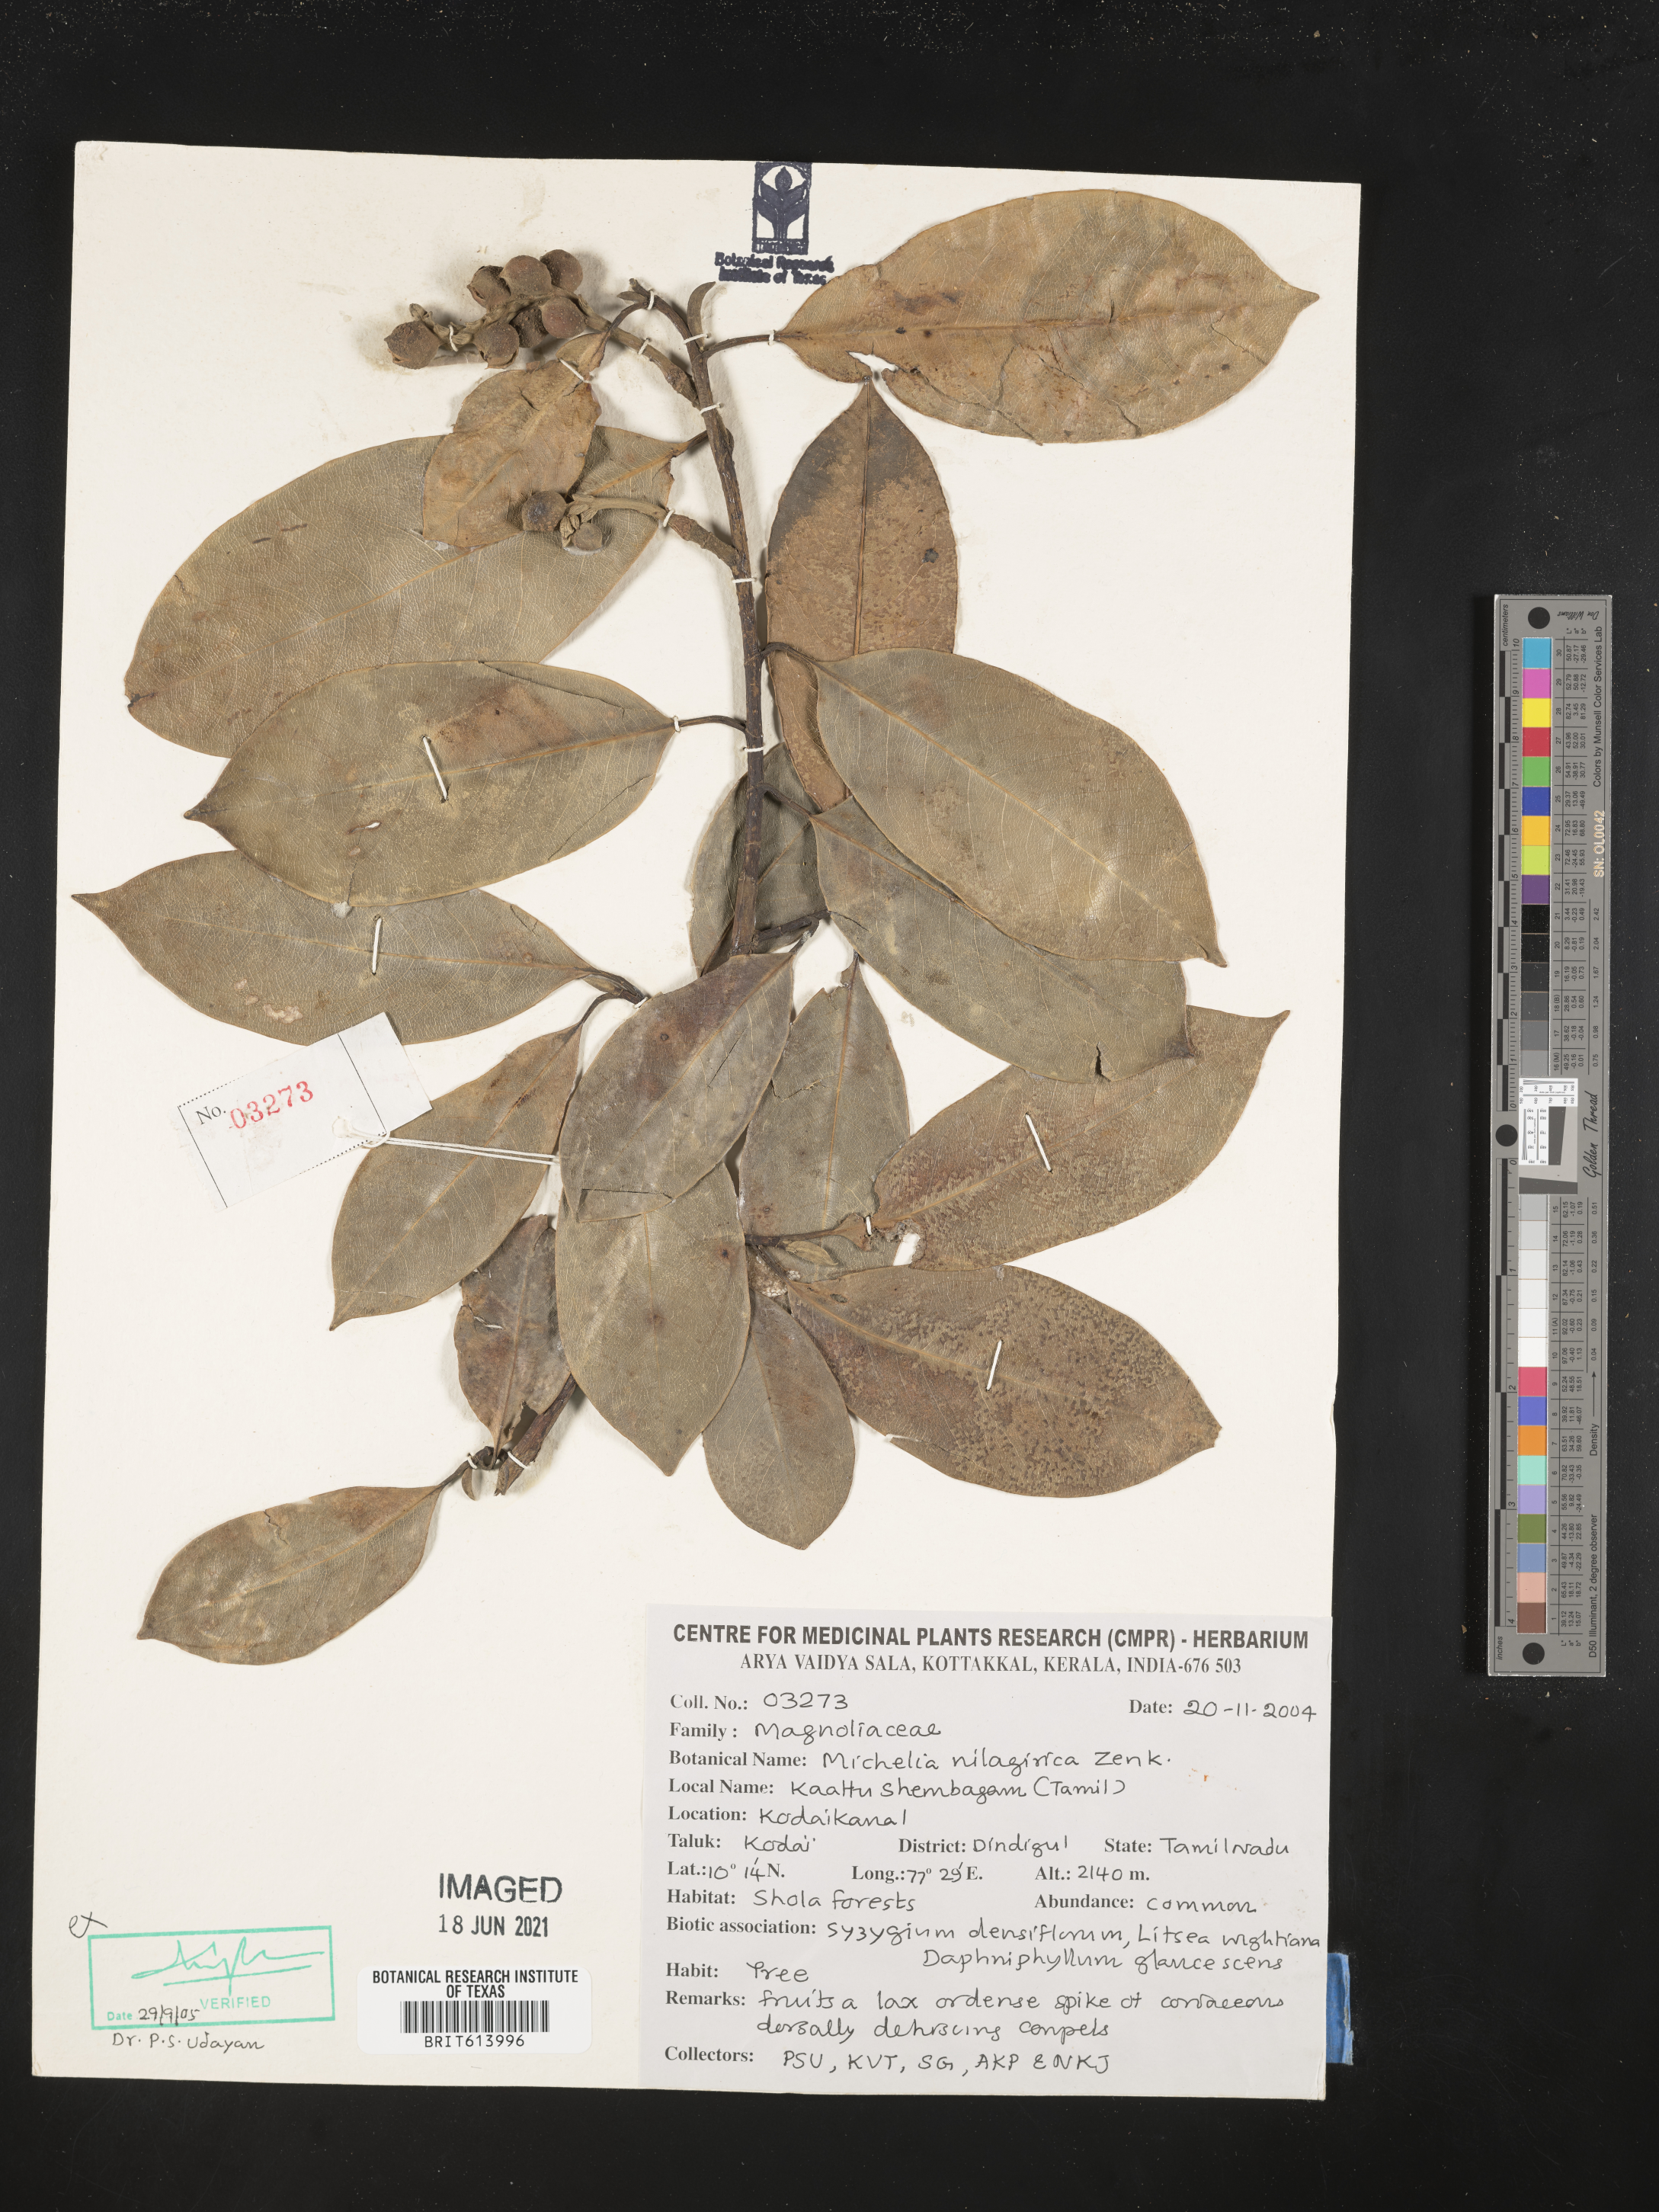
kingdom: Plantae
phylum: Tracheophyta
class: Magnoliopsida
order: Magnoliales
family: Magnoliaceae
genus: Magnolia
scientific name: Magnolia nilagirica
